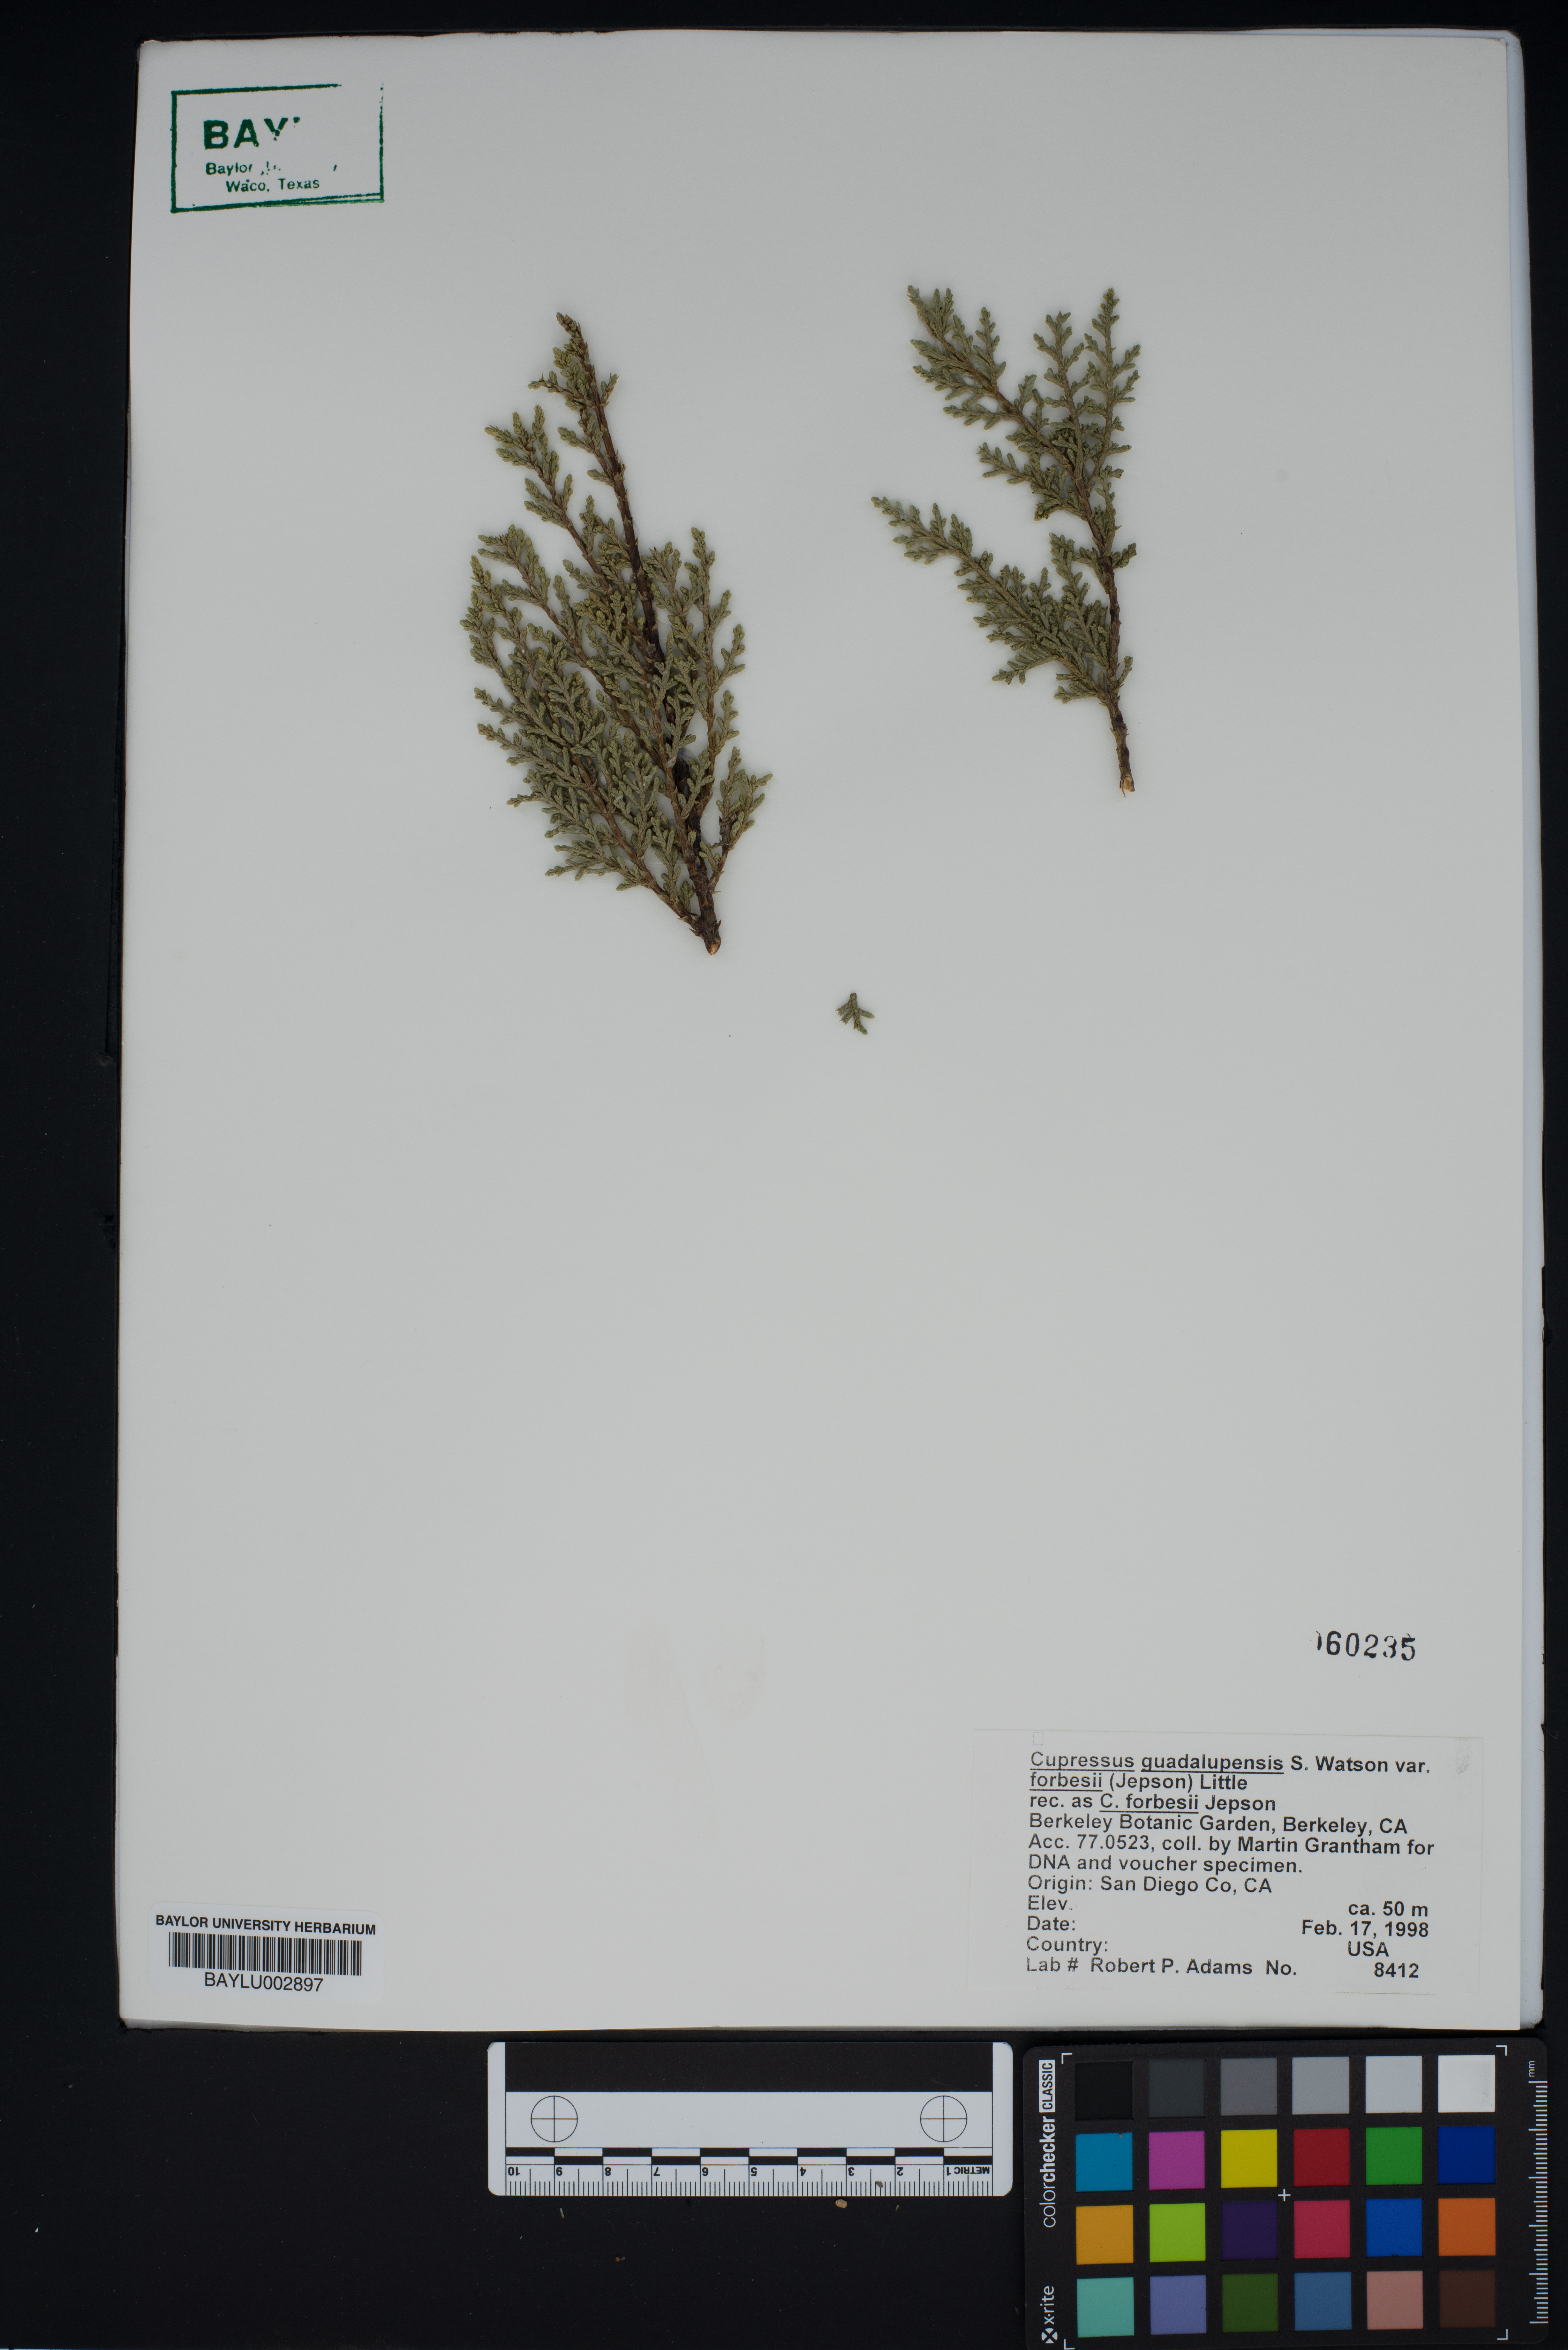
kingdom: Plantae
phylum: Tracheophyta
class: Pinopsida
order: Pinales
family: Cupressaceae
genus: Cupressus
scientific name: Cupressus guadalupensis
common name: Forbes cypress
